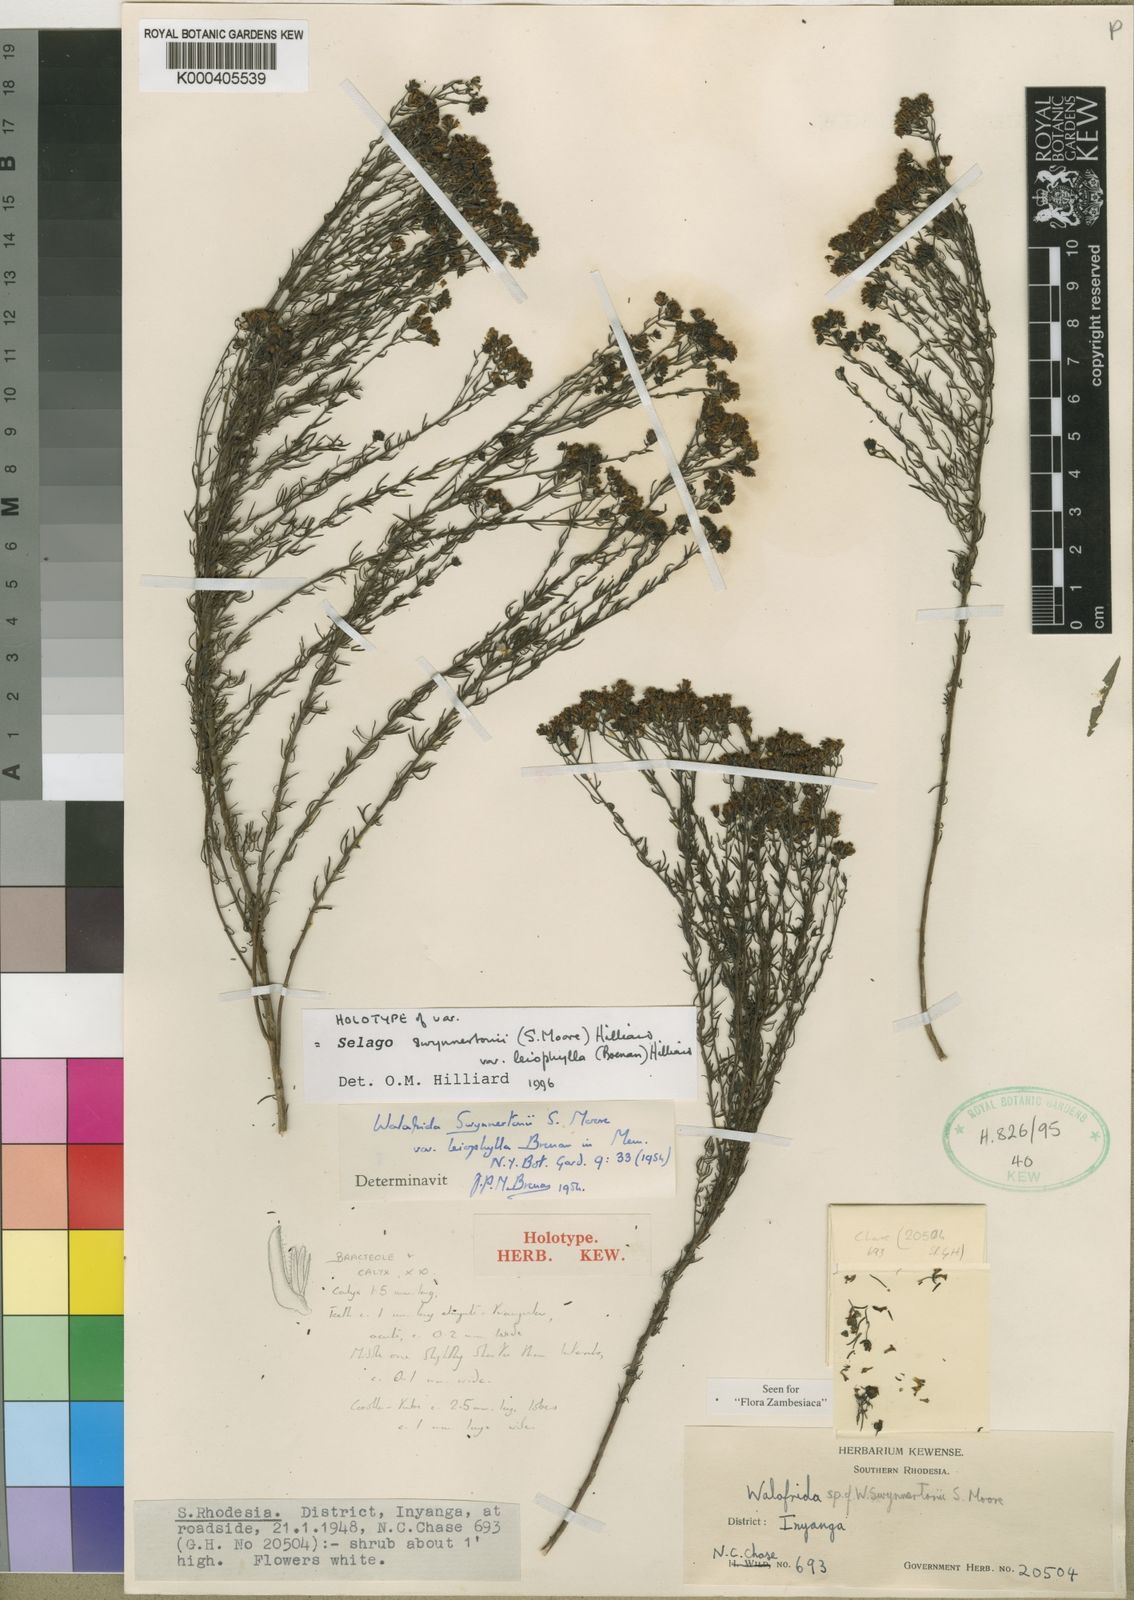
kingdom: Plantae
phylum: Tracheophyta
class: Magnoliopsida
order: Lamiales
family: Scrophulariaceae
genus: Selago
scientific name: Selago swynnertonii
